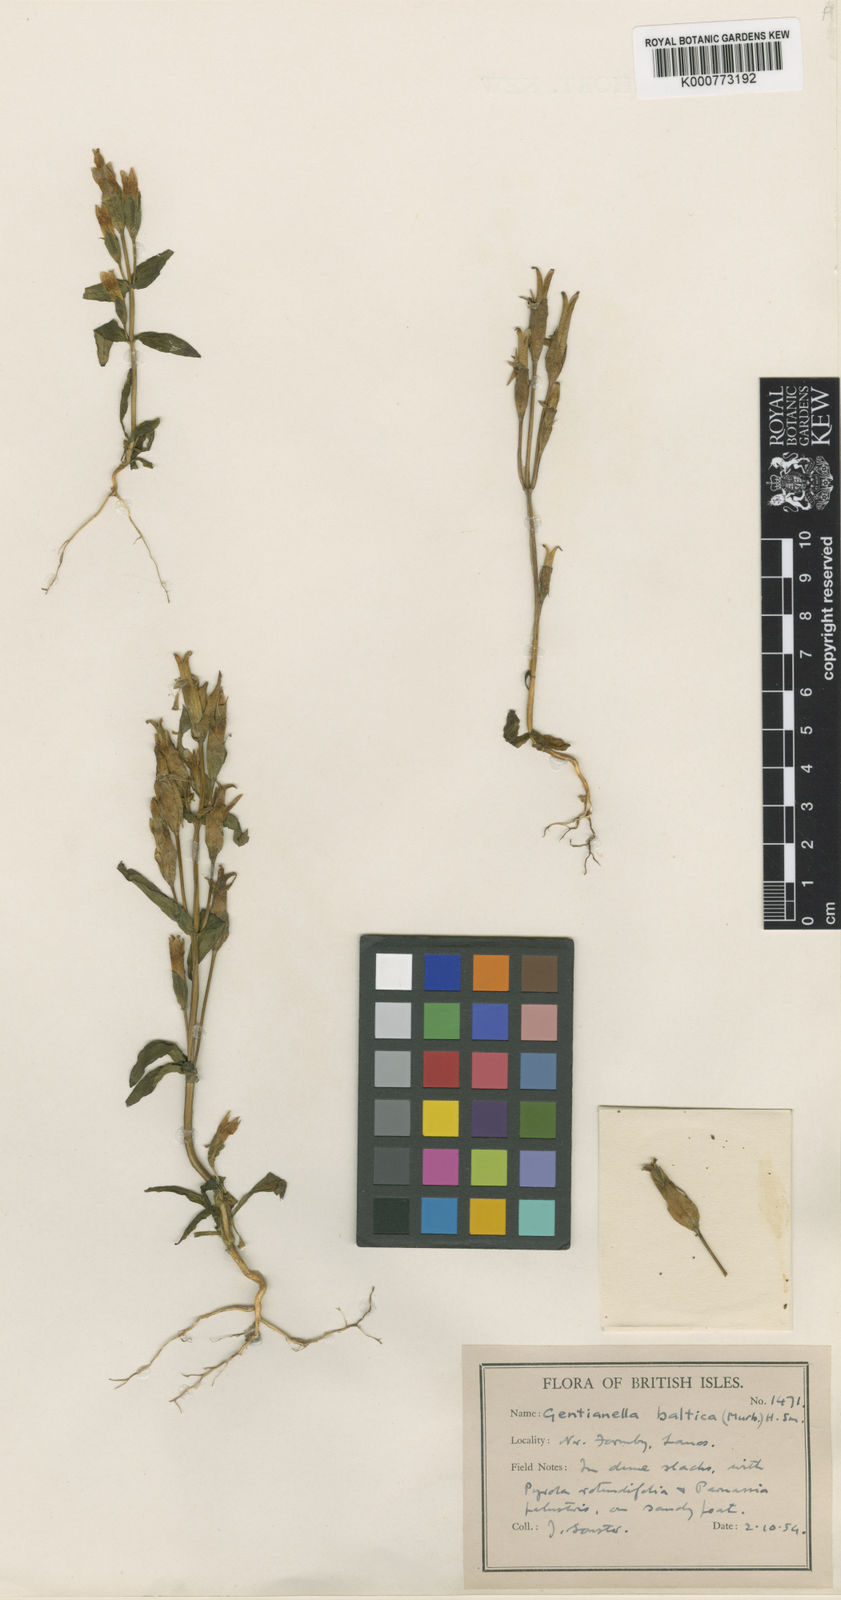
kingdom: Plantae
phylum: Tracheophyta
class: Magnoliopsida
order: Gentianales
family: Gentianaceae
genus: Gentianella
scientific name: Gentianella
